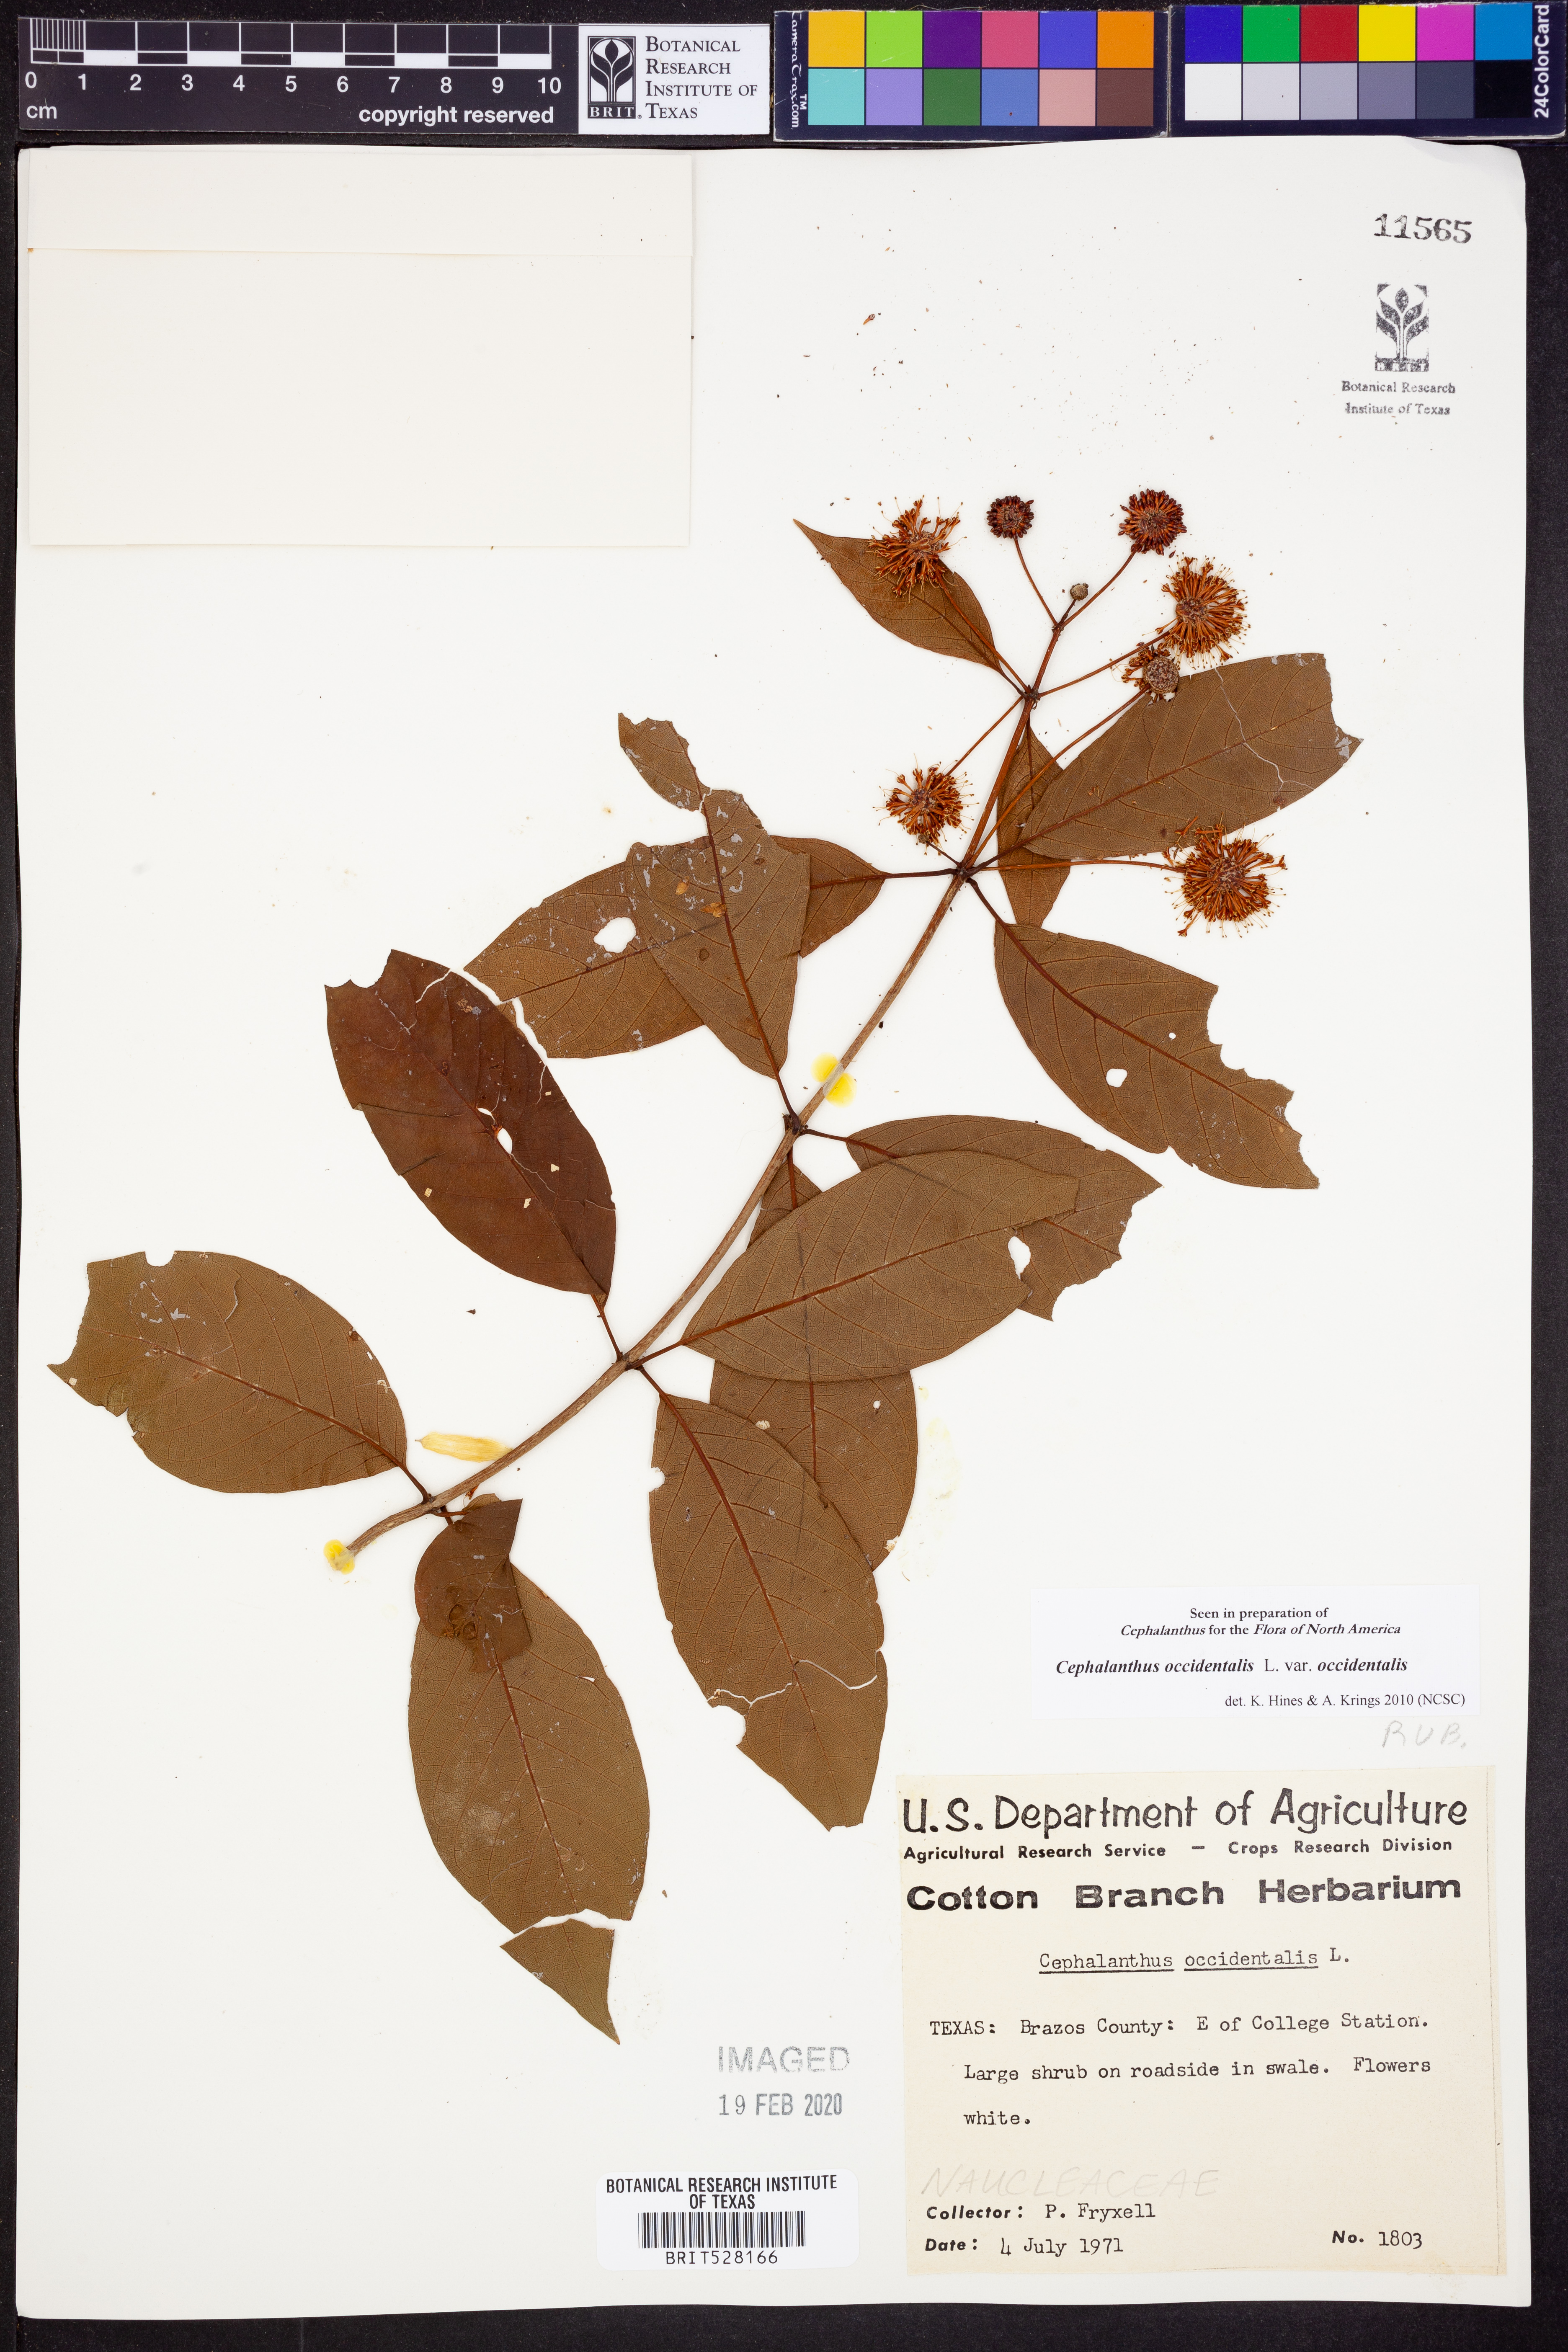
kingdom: Plantae
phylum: Tracheophyta
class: Magnoliopsida
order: Gentianales
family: Rubiaceae
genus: Cephalanthus
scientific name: Cephalanthus occidentalis
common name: Button-willow
